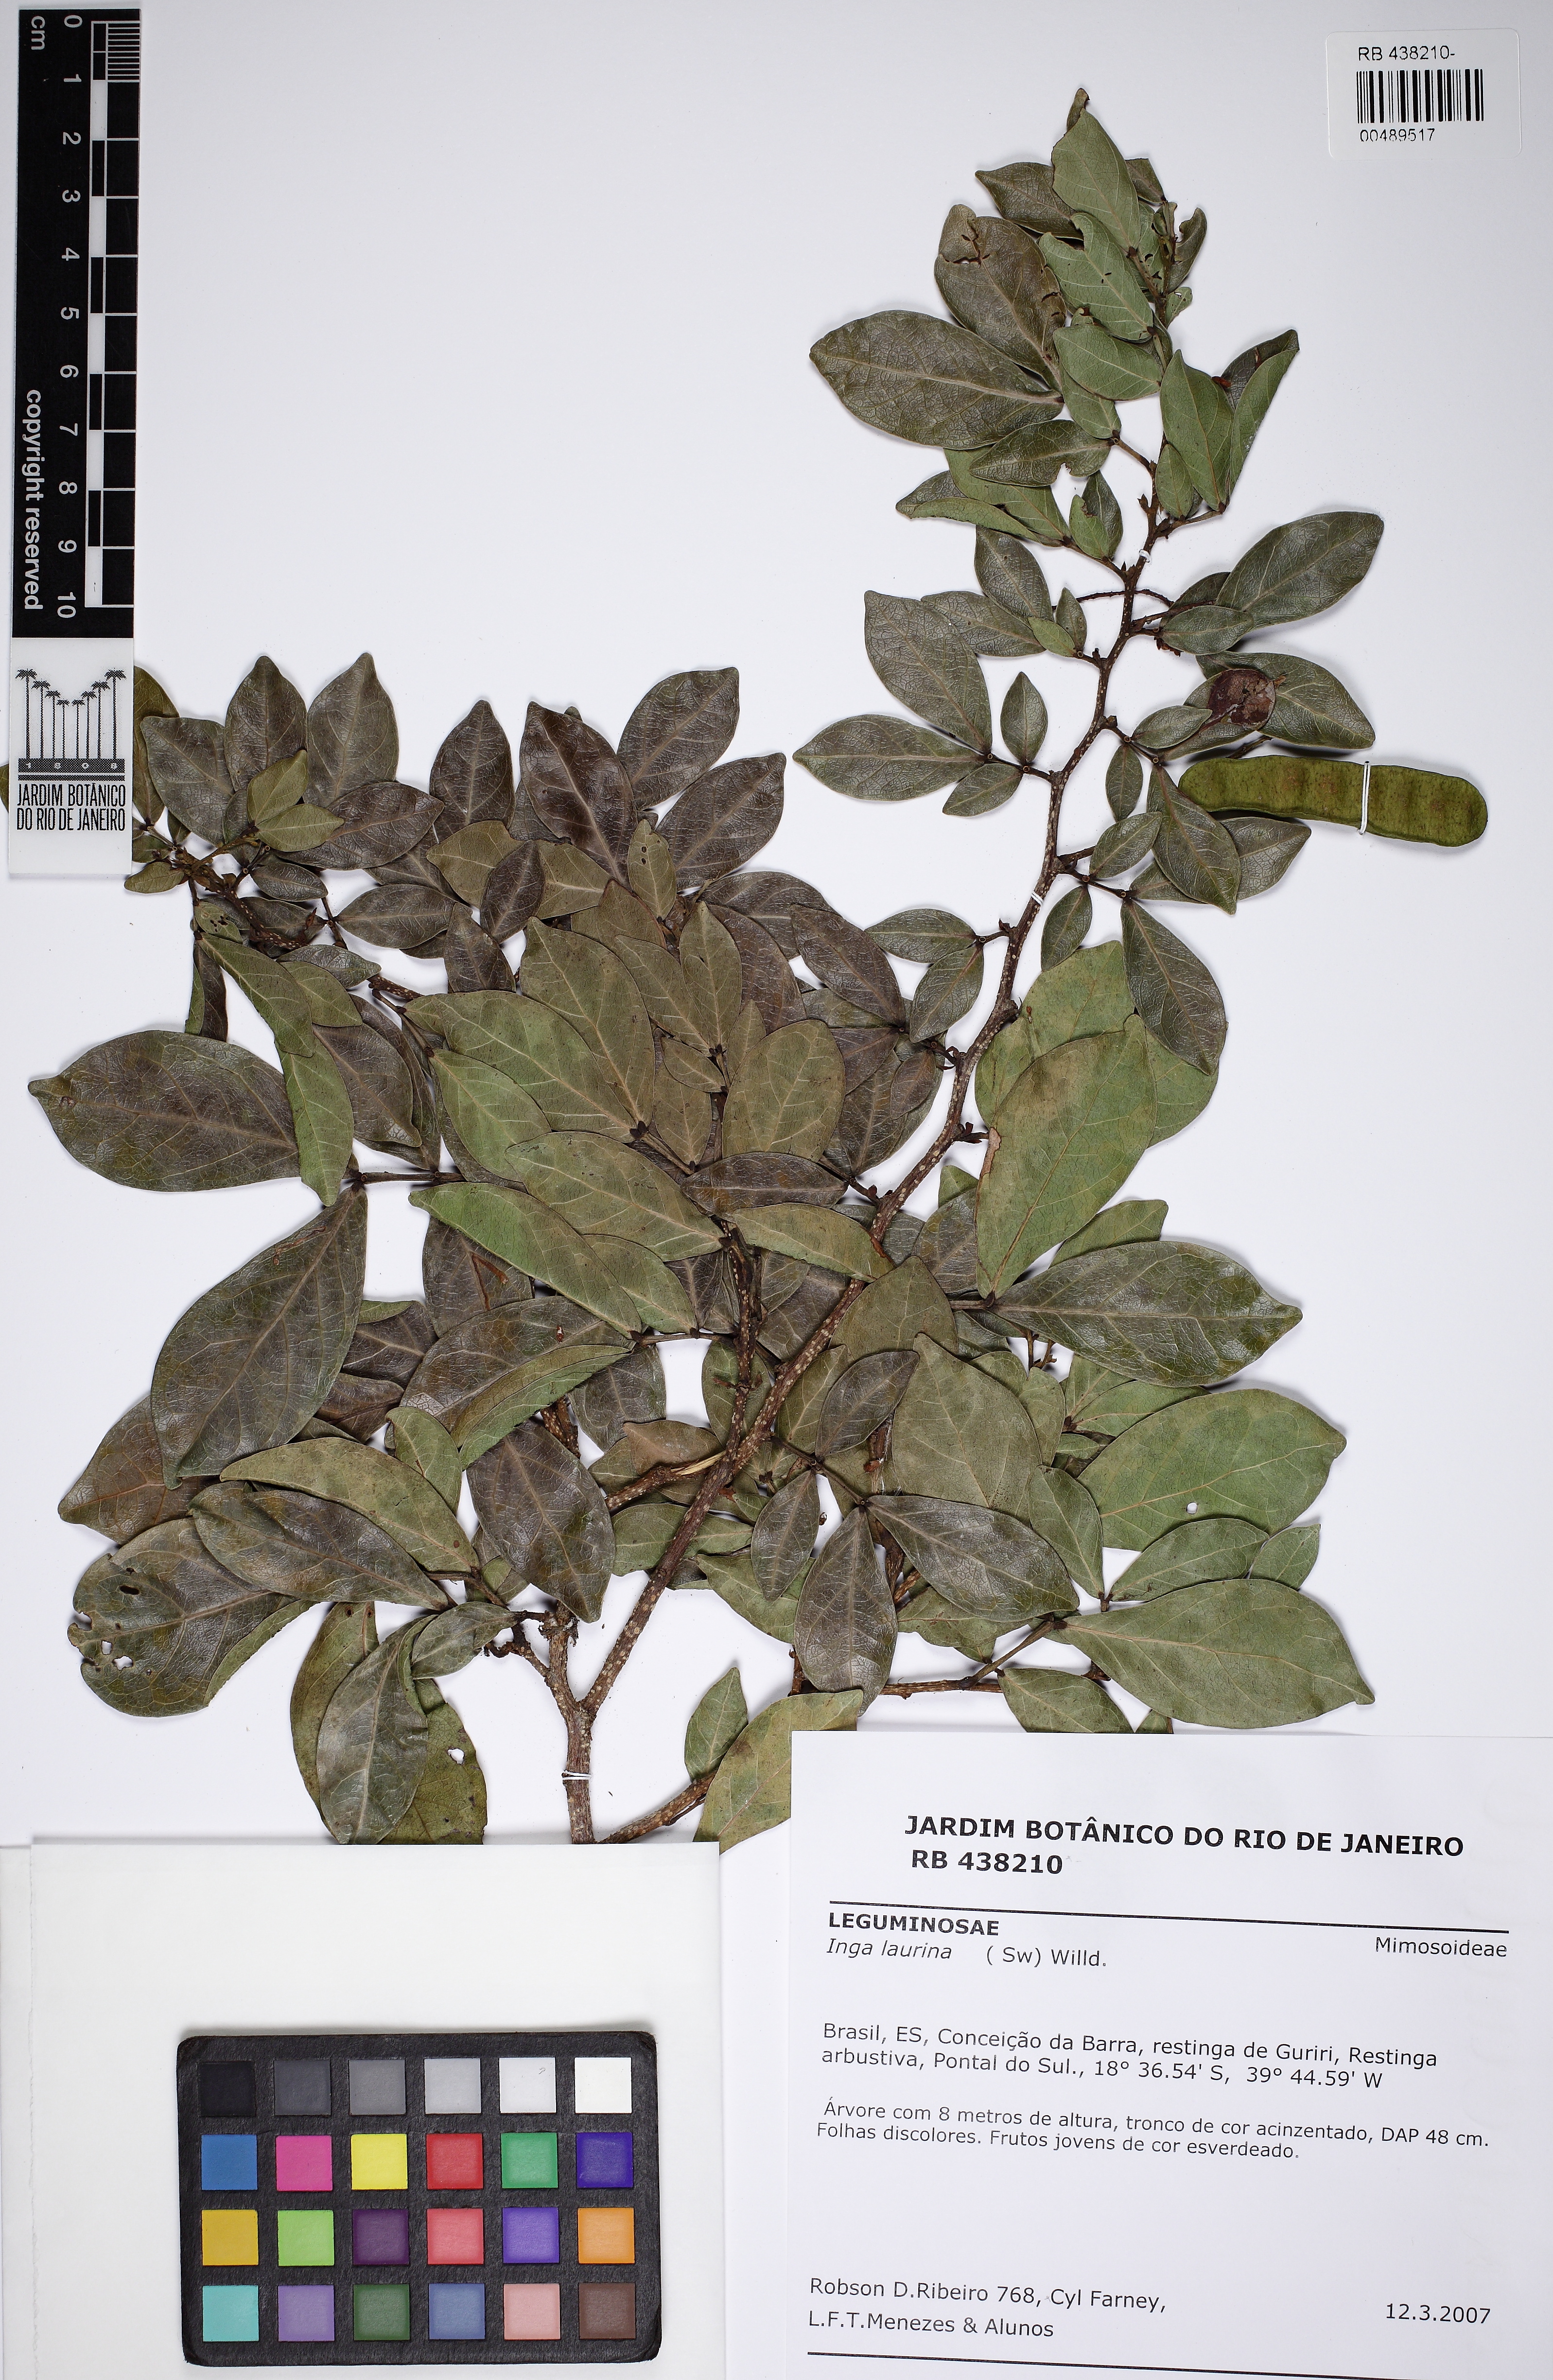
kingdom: Plantae
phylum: Tracheophyta
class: Magnoliopsida
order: Fabales
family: Fabaceae
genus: Inga
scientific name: Inga laurina
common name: Red wood
